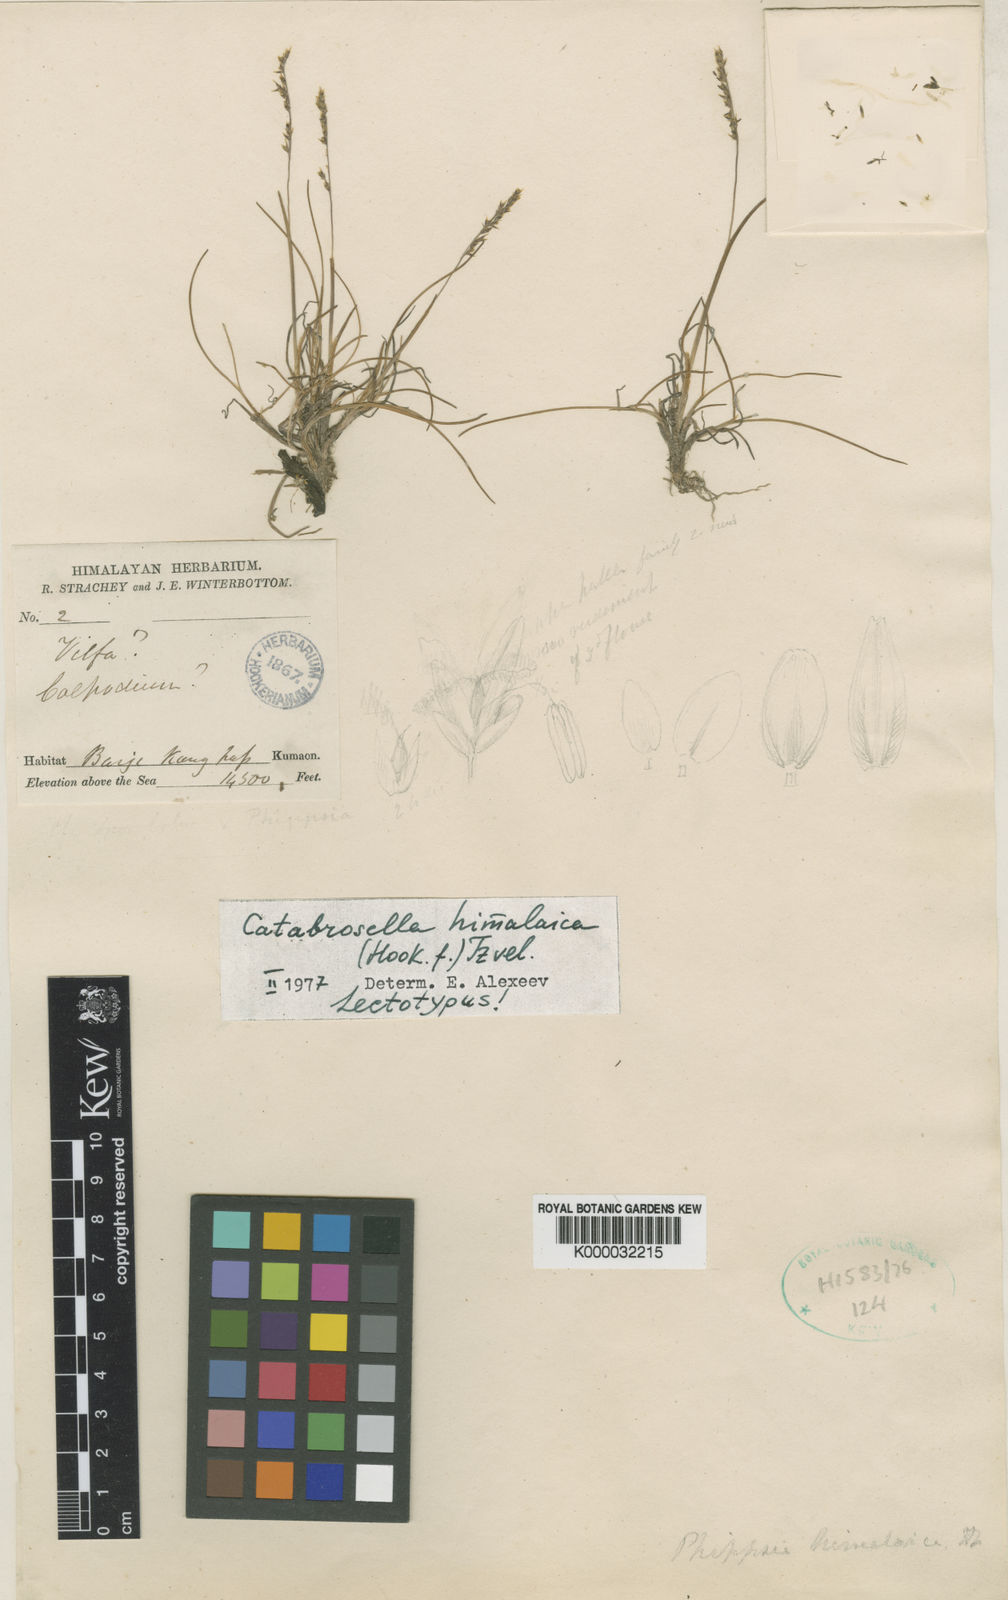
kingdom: Plantae
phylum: Tracheophyta
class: Liliopsida
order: Poales
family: Poaceae
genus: Catabrosella
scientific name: Catabrosella himalaica
